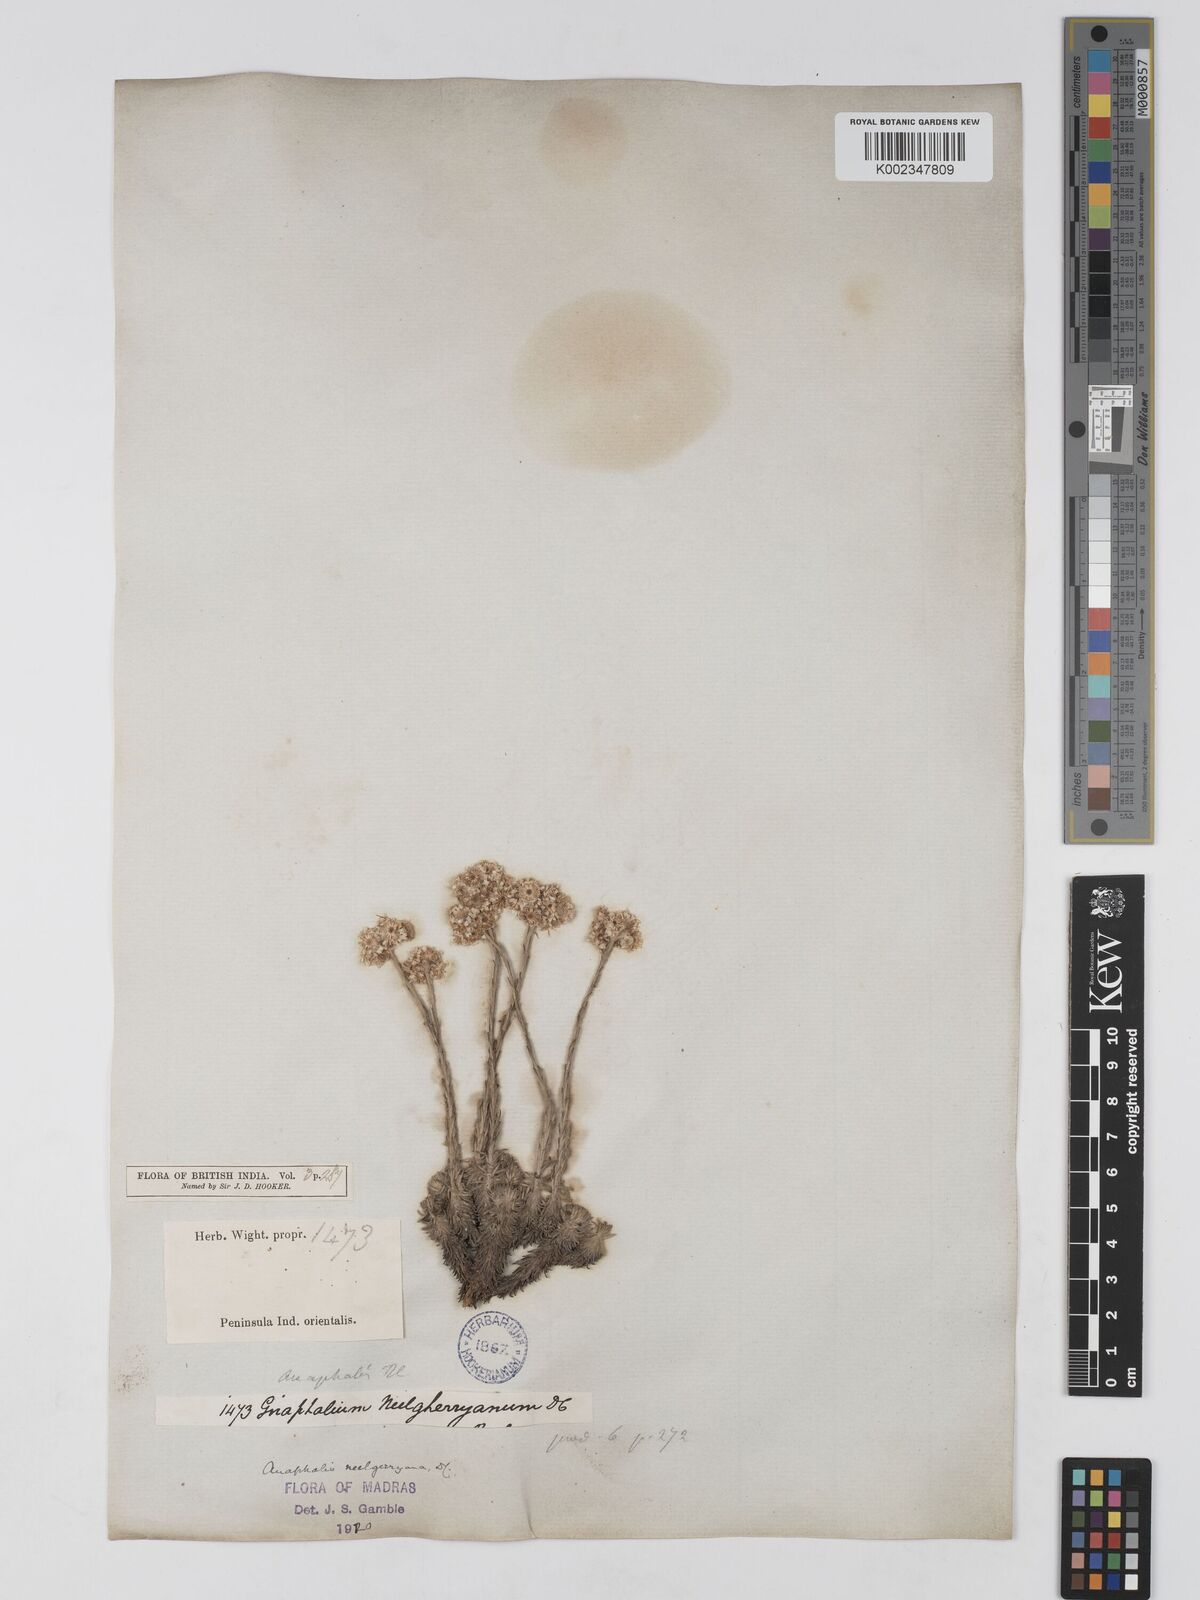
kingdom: Plantae
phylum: Tracheophyta
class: Magnoliopsida
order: Asterales
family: Asteraceae
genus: Anaphalis
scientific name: Anaphalis neelgerryana
